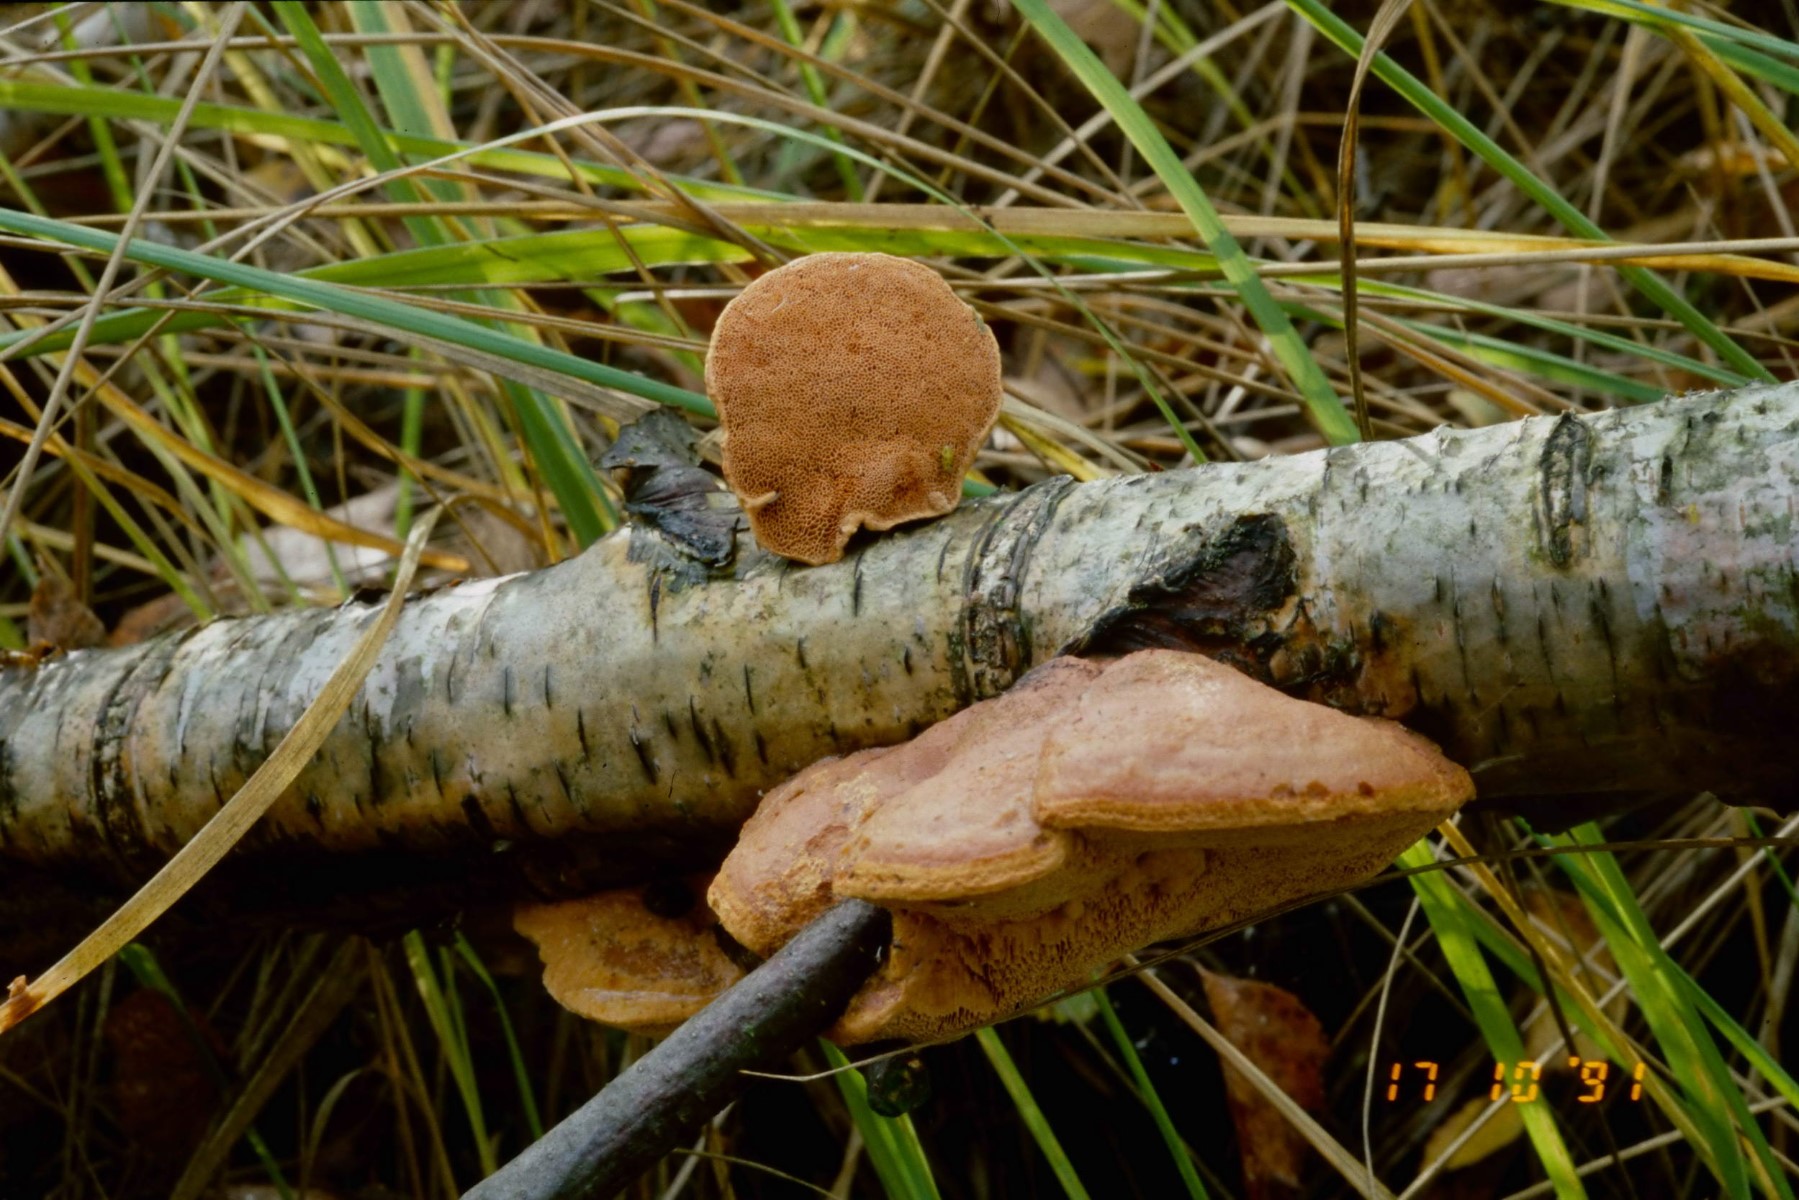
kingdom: Fungi
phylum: Basidiomycota
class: Agaricomycetes
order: Polyporales
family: Phanerochaetaceae
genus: Hapalopilus
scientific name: Hapalopilus rutilans
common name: rødlig okkerporesvamp
